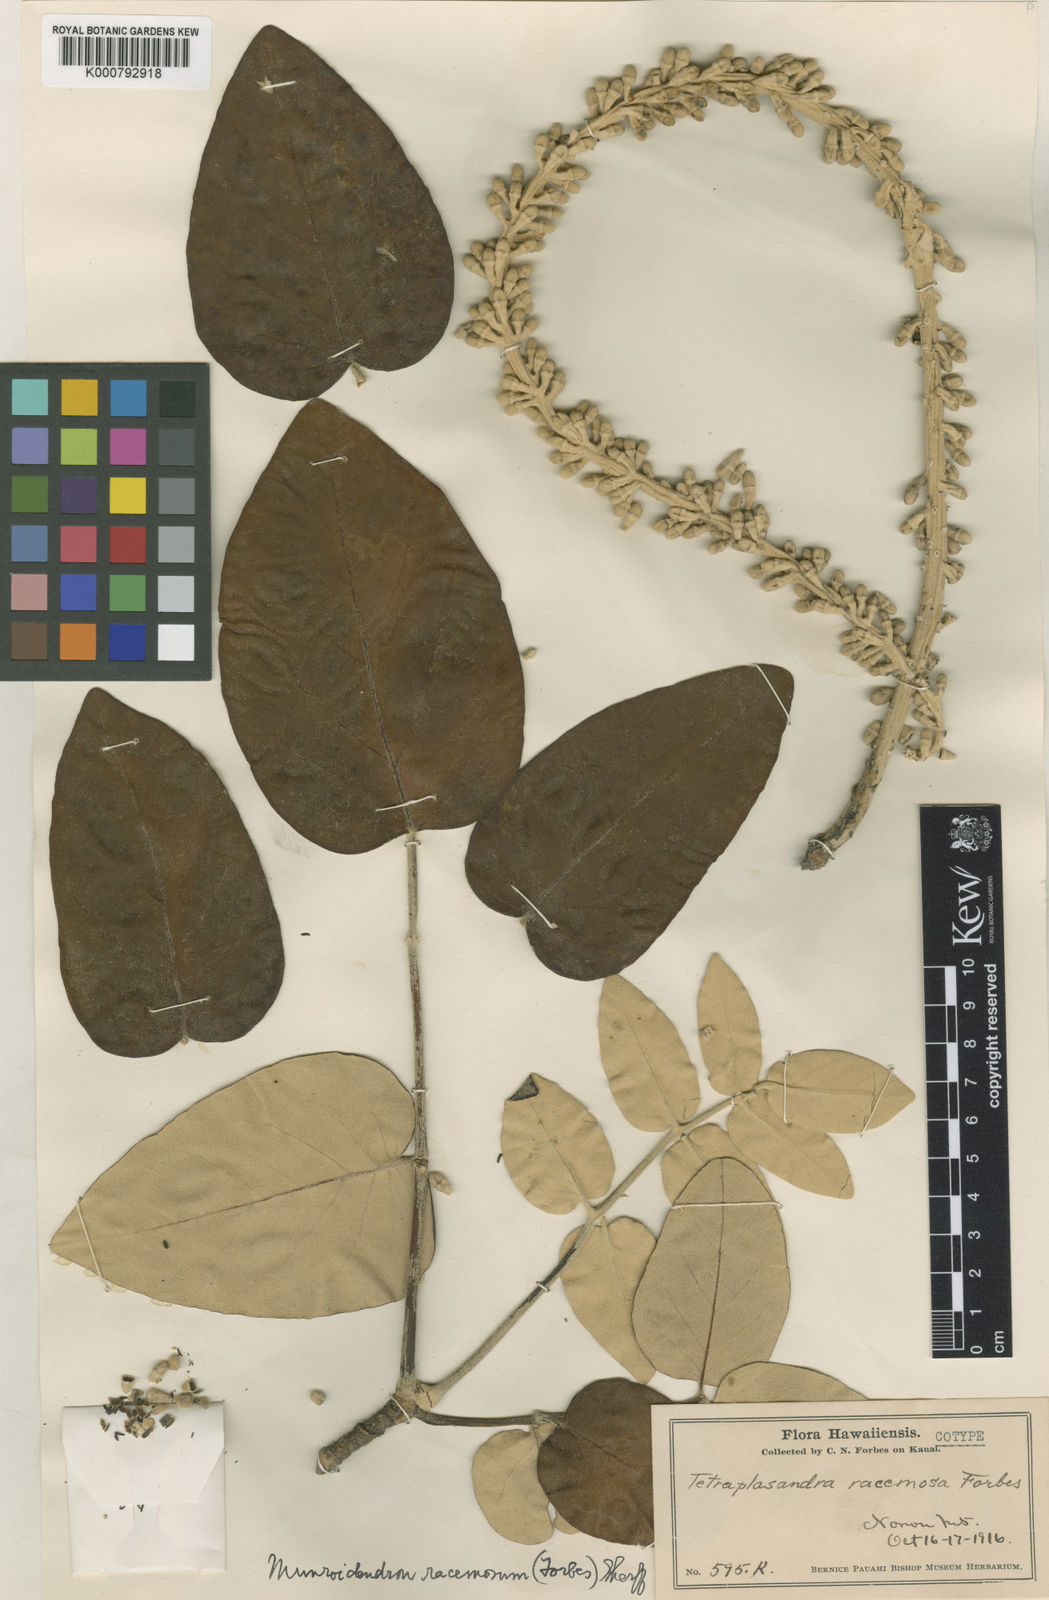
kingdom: Plantae
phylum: Tracheophyta
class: Magnoliopsida
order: Apiales
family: Araliaceae
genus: Polyscias
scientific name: Polyscias racemosa
